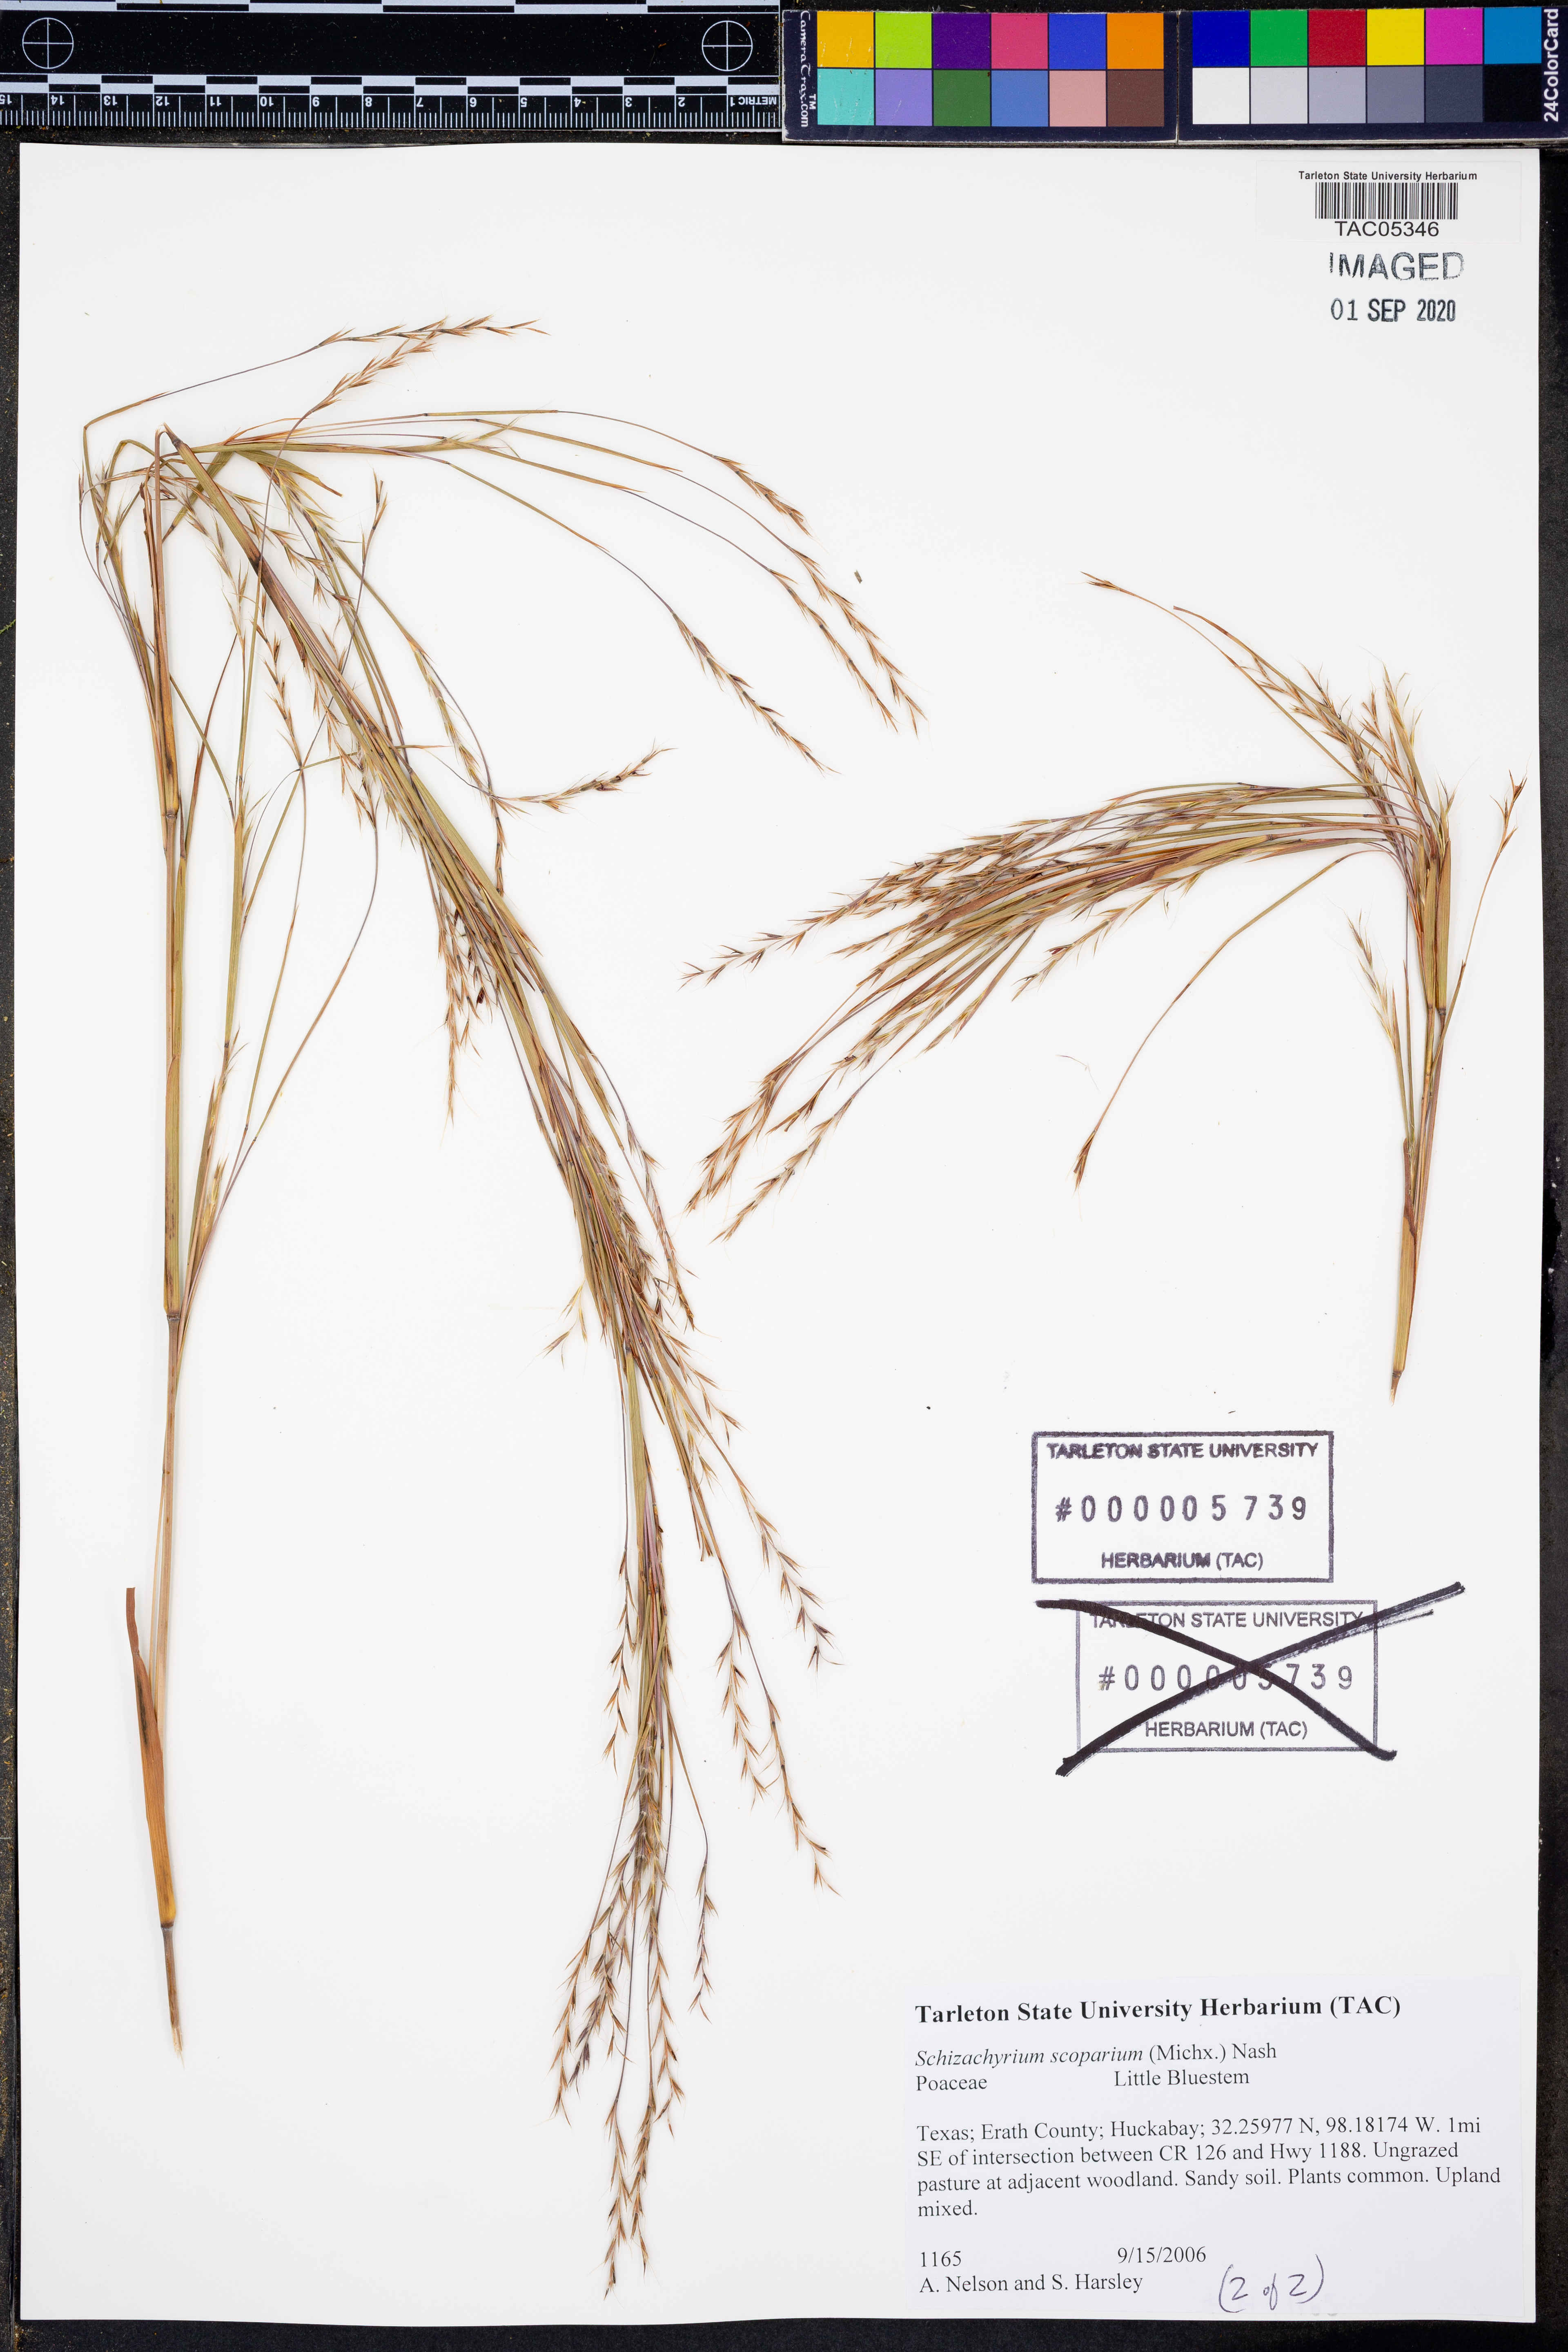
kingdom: Plantae
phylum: Tracheophyta
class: Liliopsida
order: Poales
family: Poaceae
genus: Schizachyrium
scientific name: Schizachyrium scoparium
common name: Little bluestem
